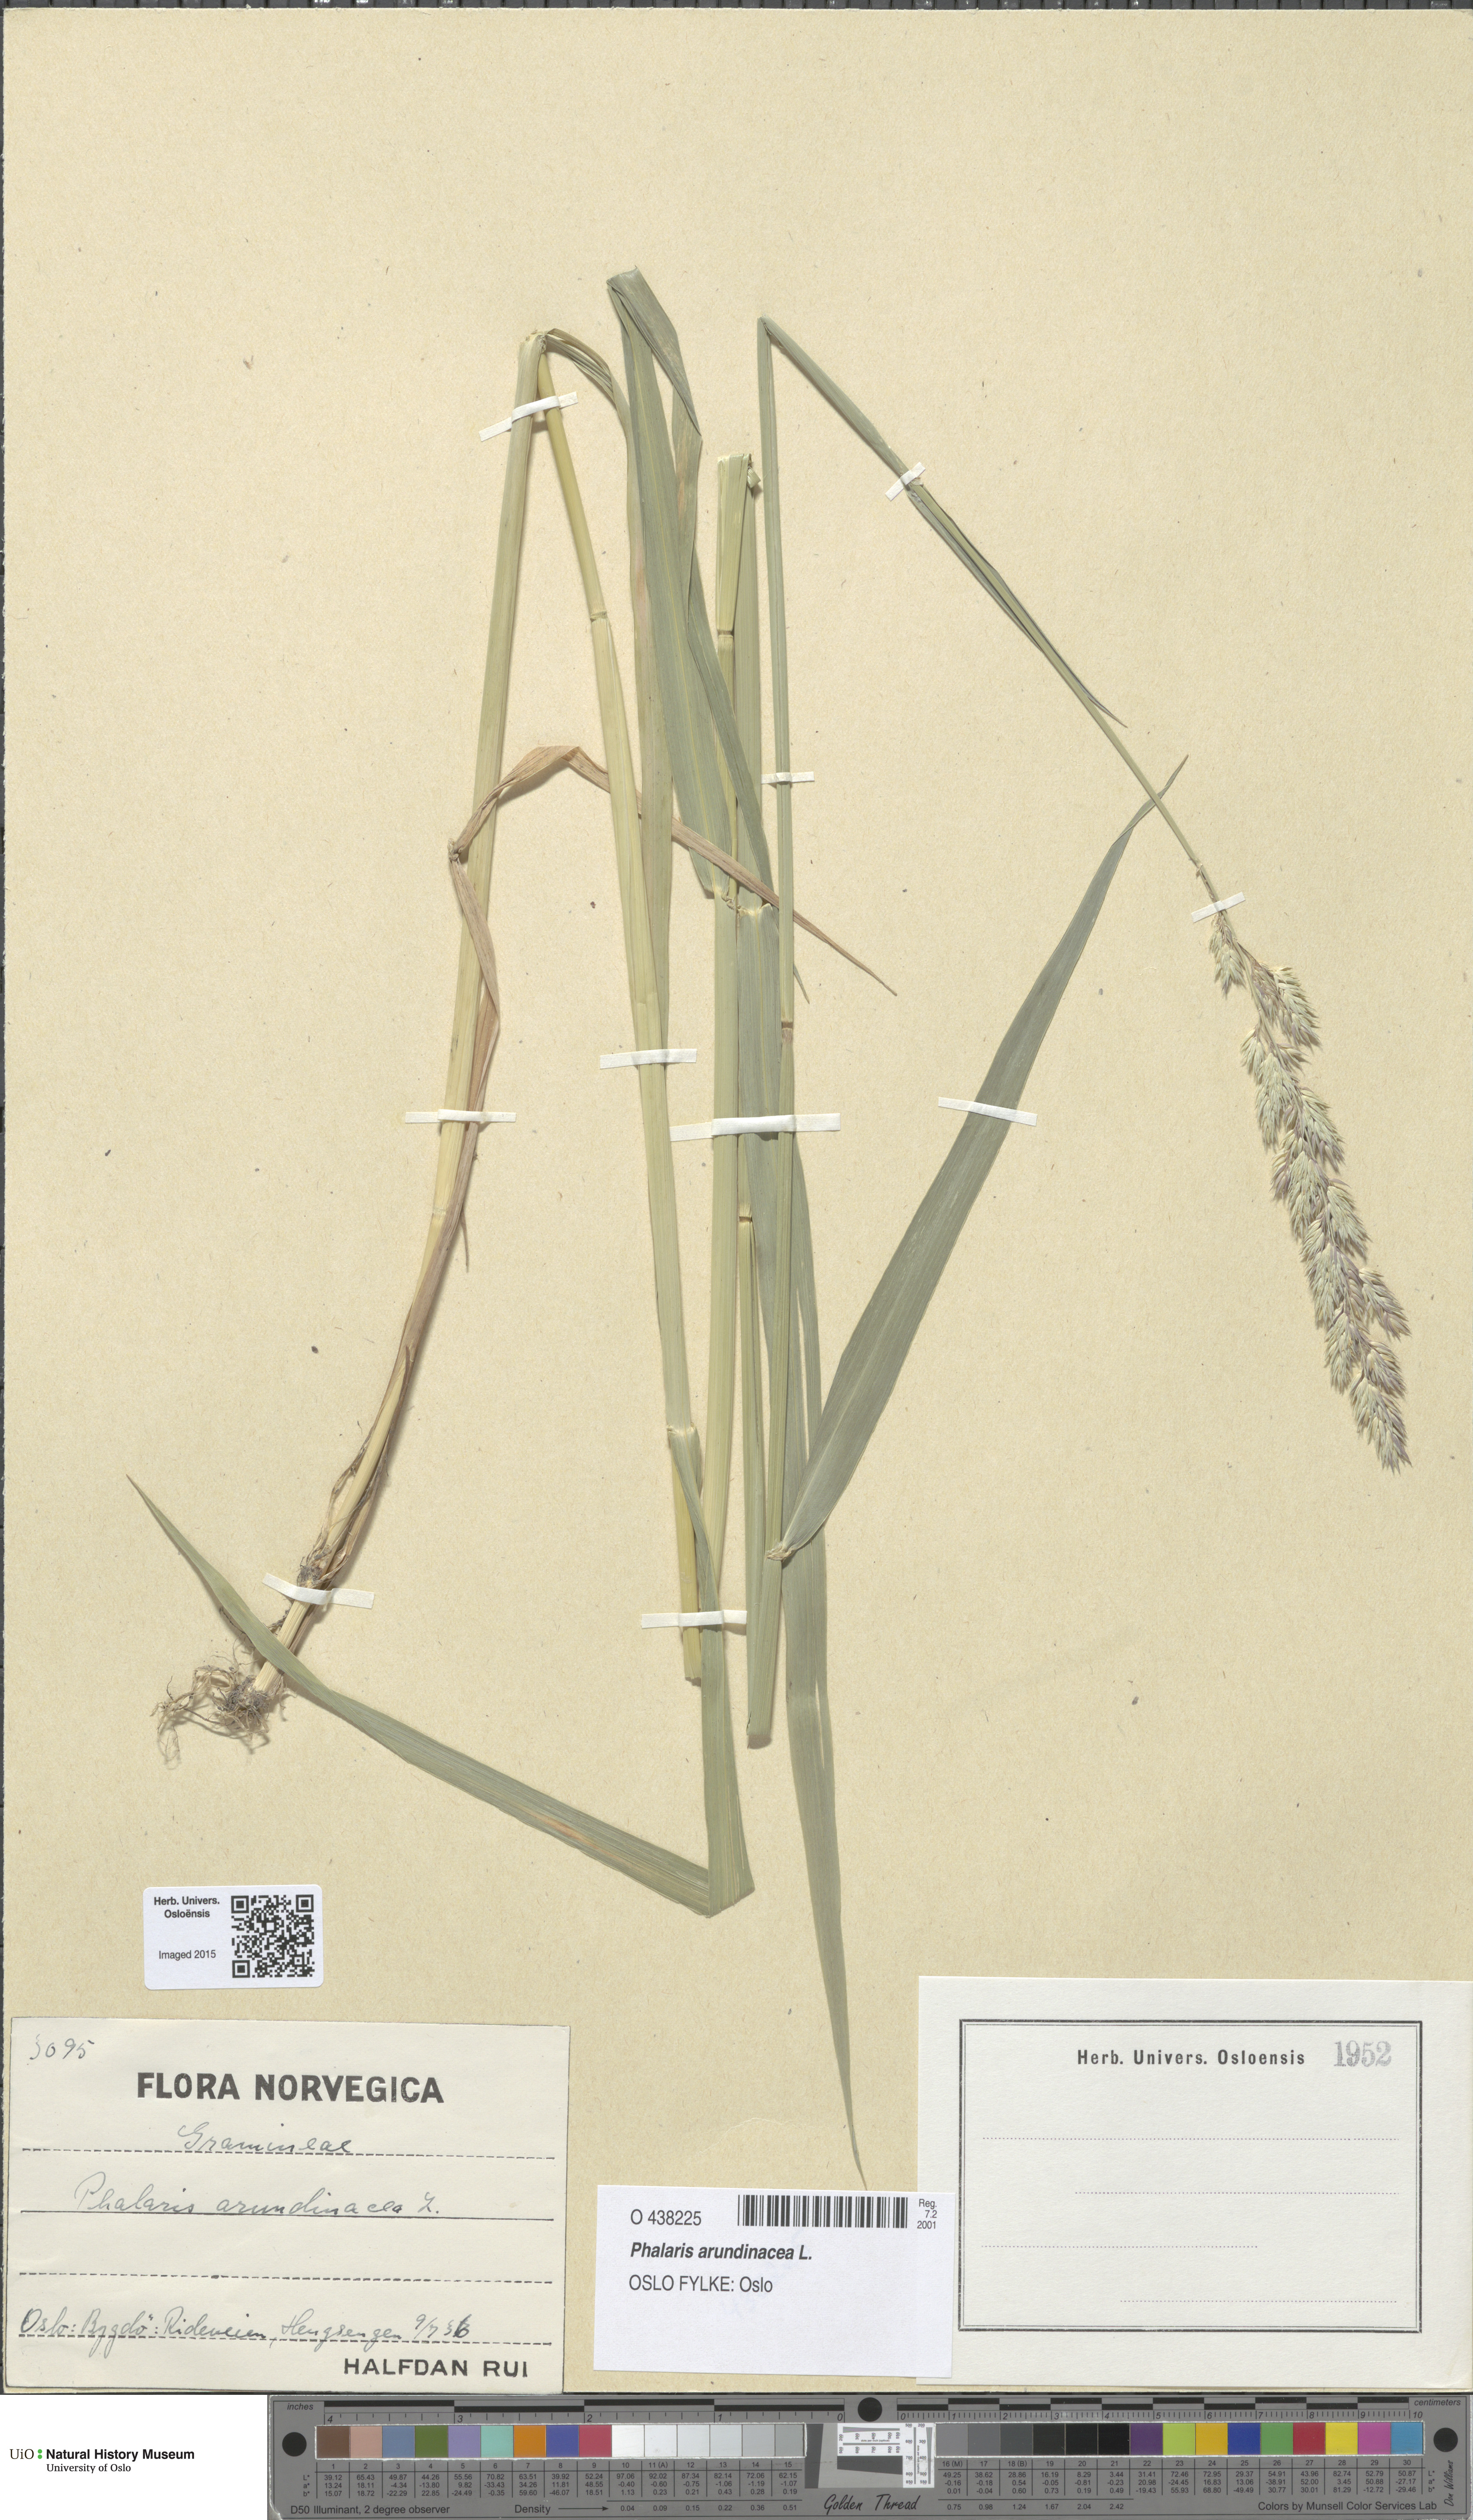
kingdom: Plantae
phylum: Tracheophyta
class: Liliopsida
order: Poales
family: Poaceae
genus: Phalaris
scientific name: Phalaris arundinacea
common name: Reed canary-grass
